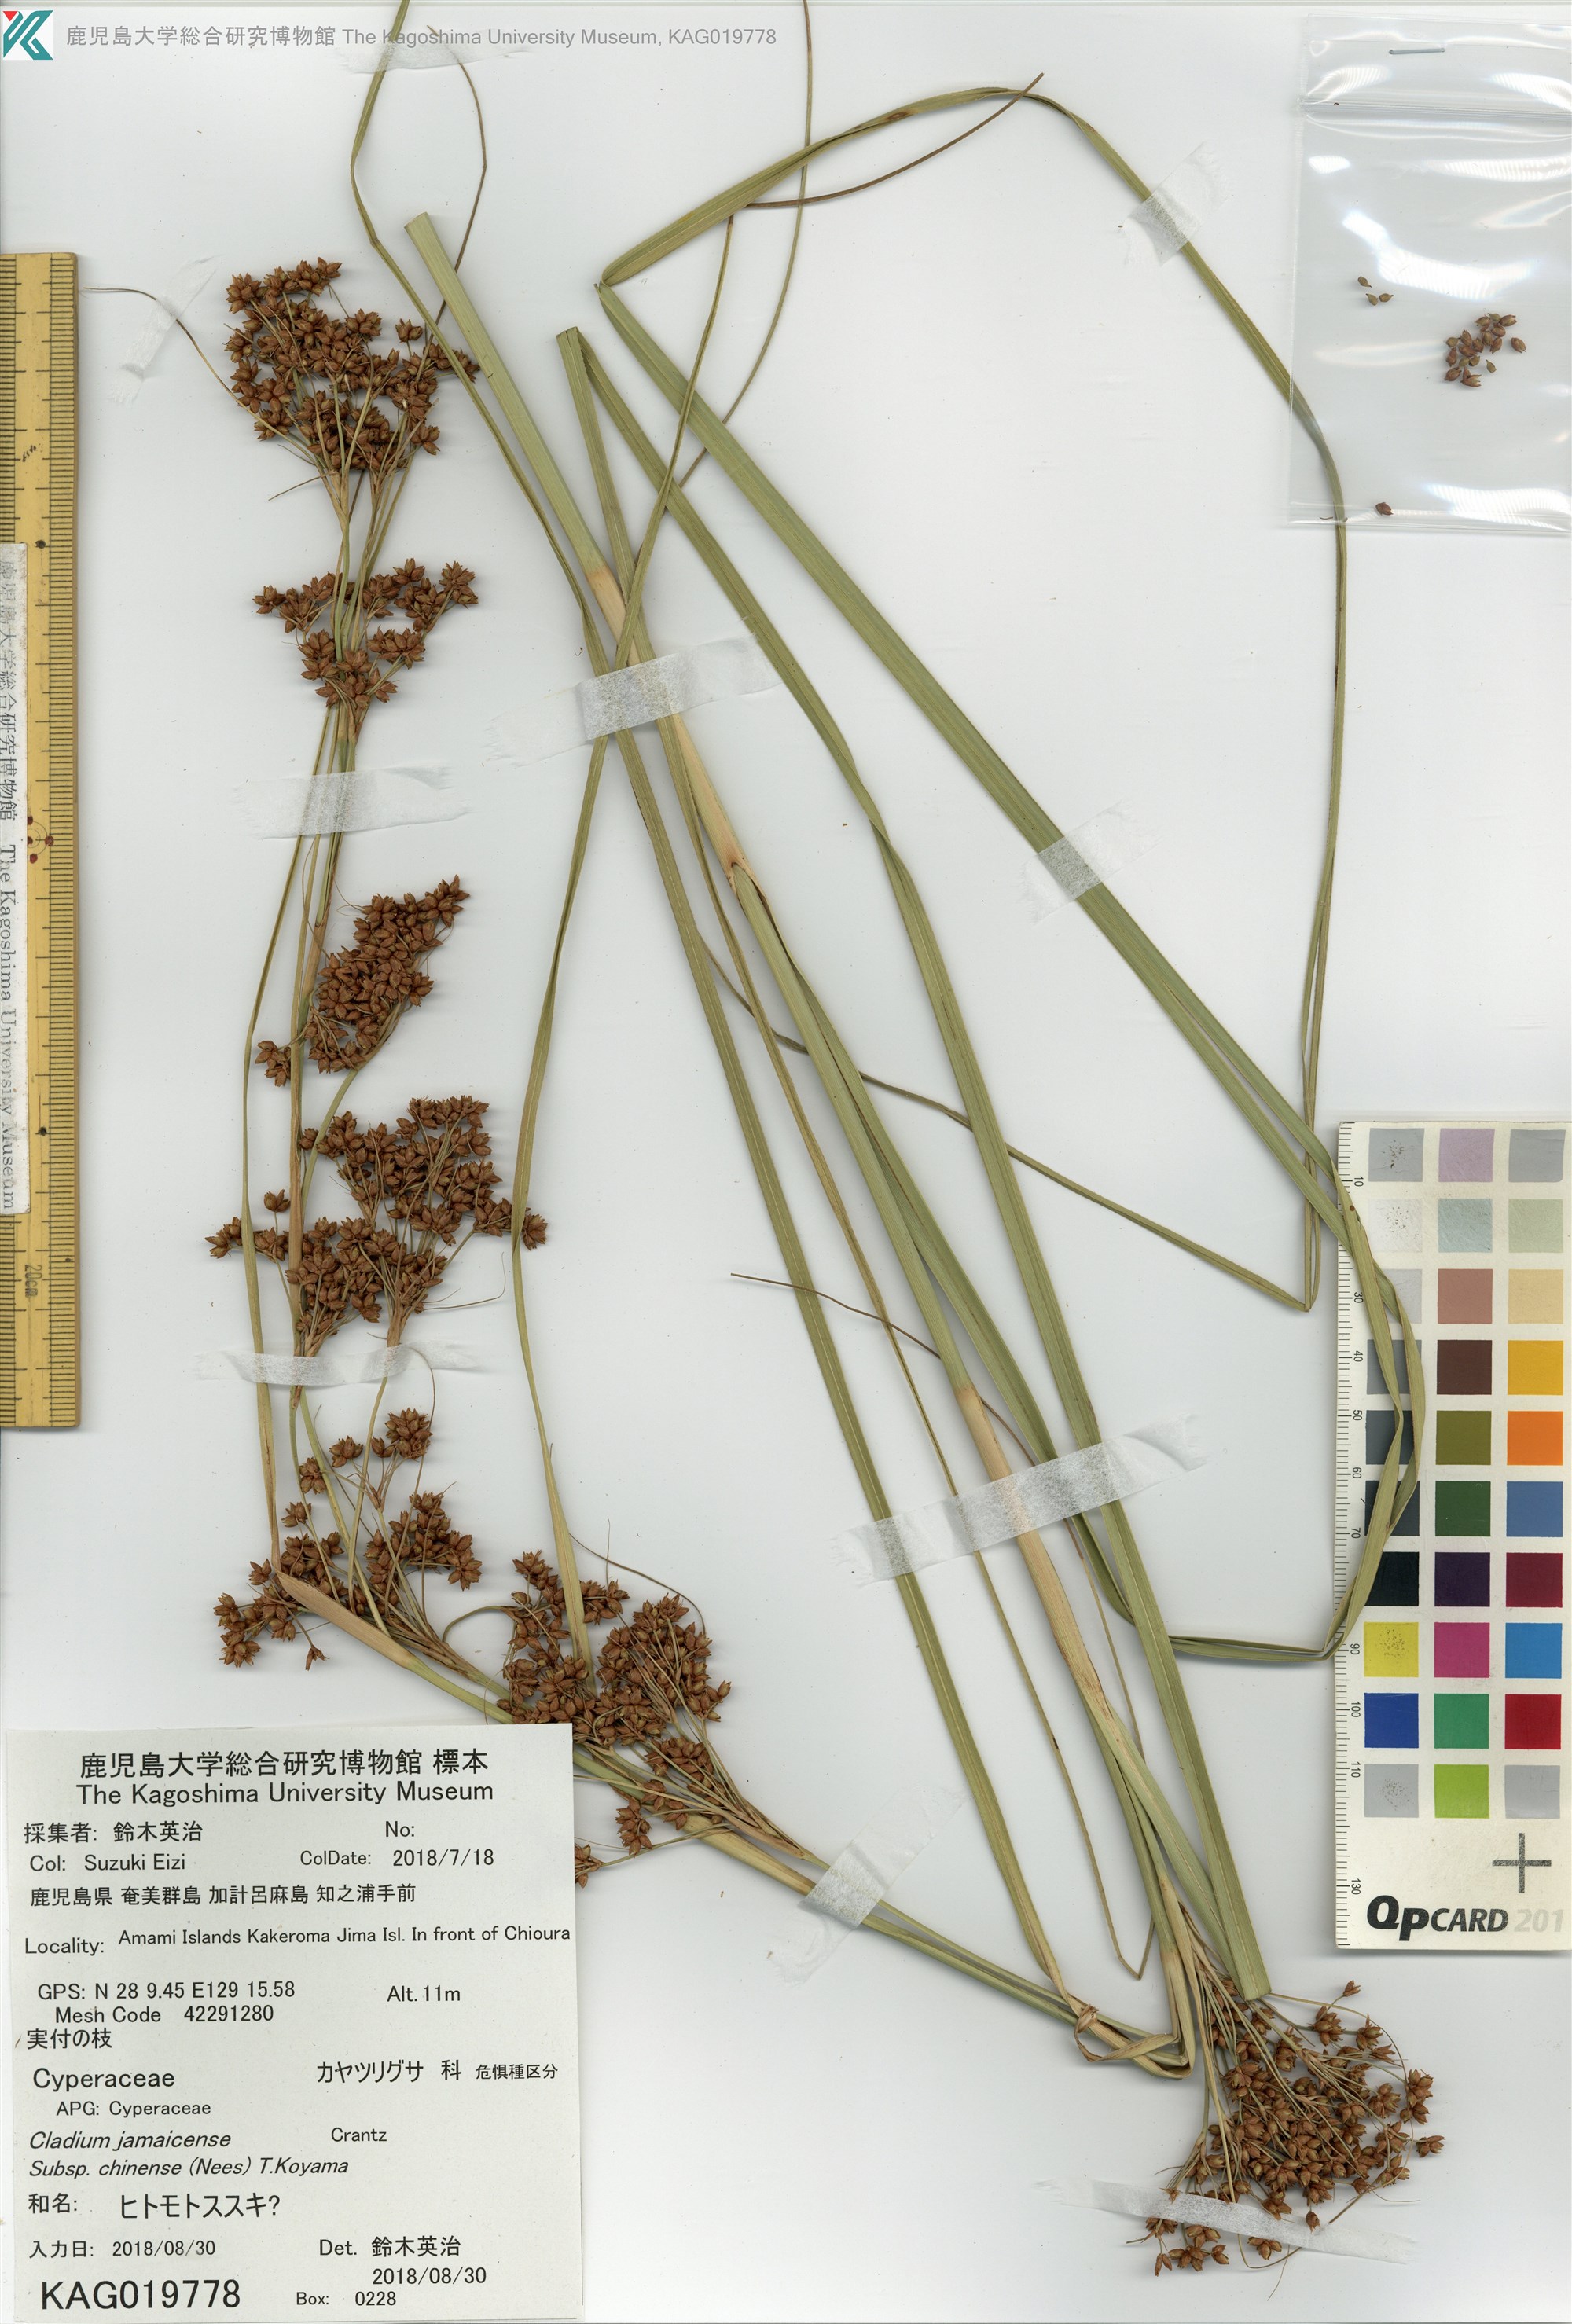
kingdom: Plantae
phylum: Tracheophyta
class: Liliopsida
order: Poales
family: Cyperaceae
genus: Cladium
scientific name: Cladium mariscus
